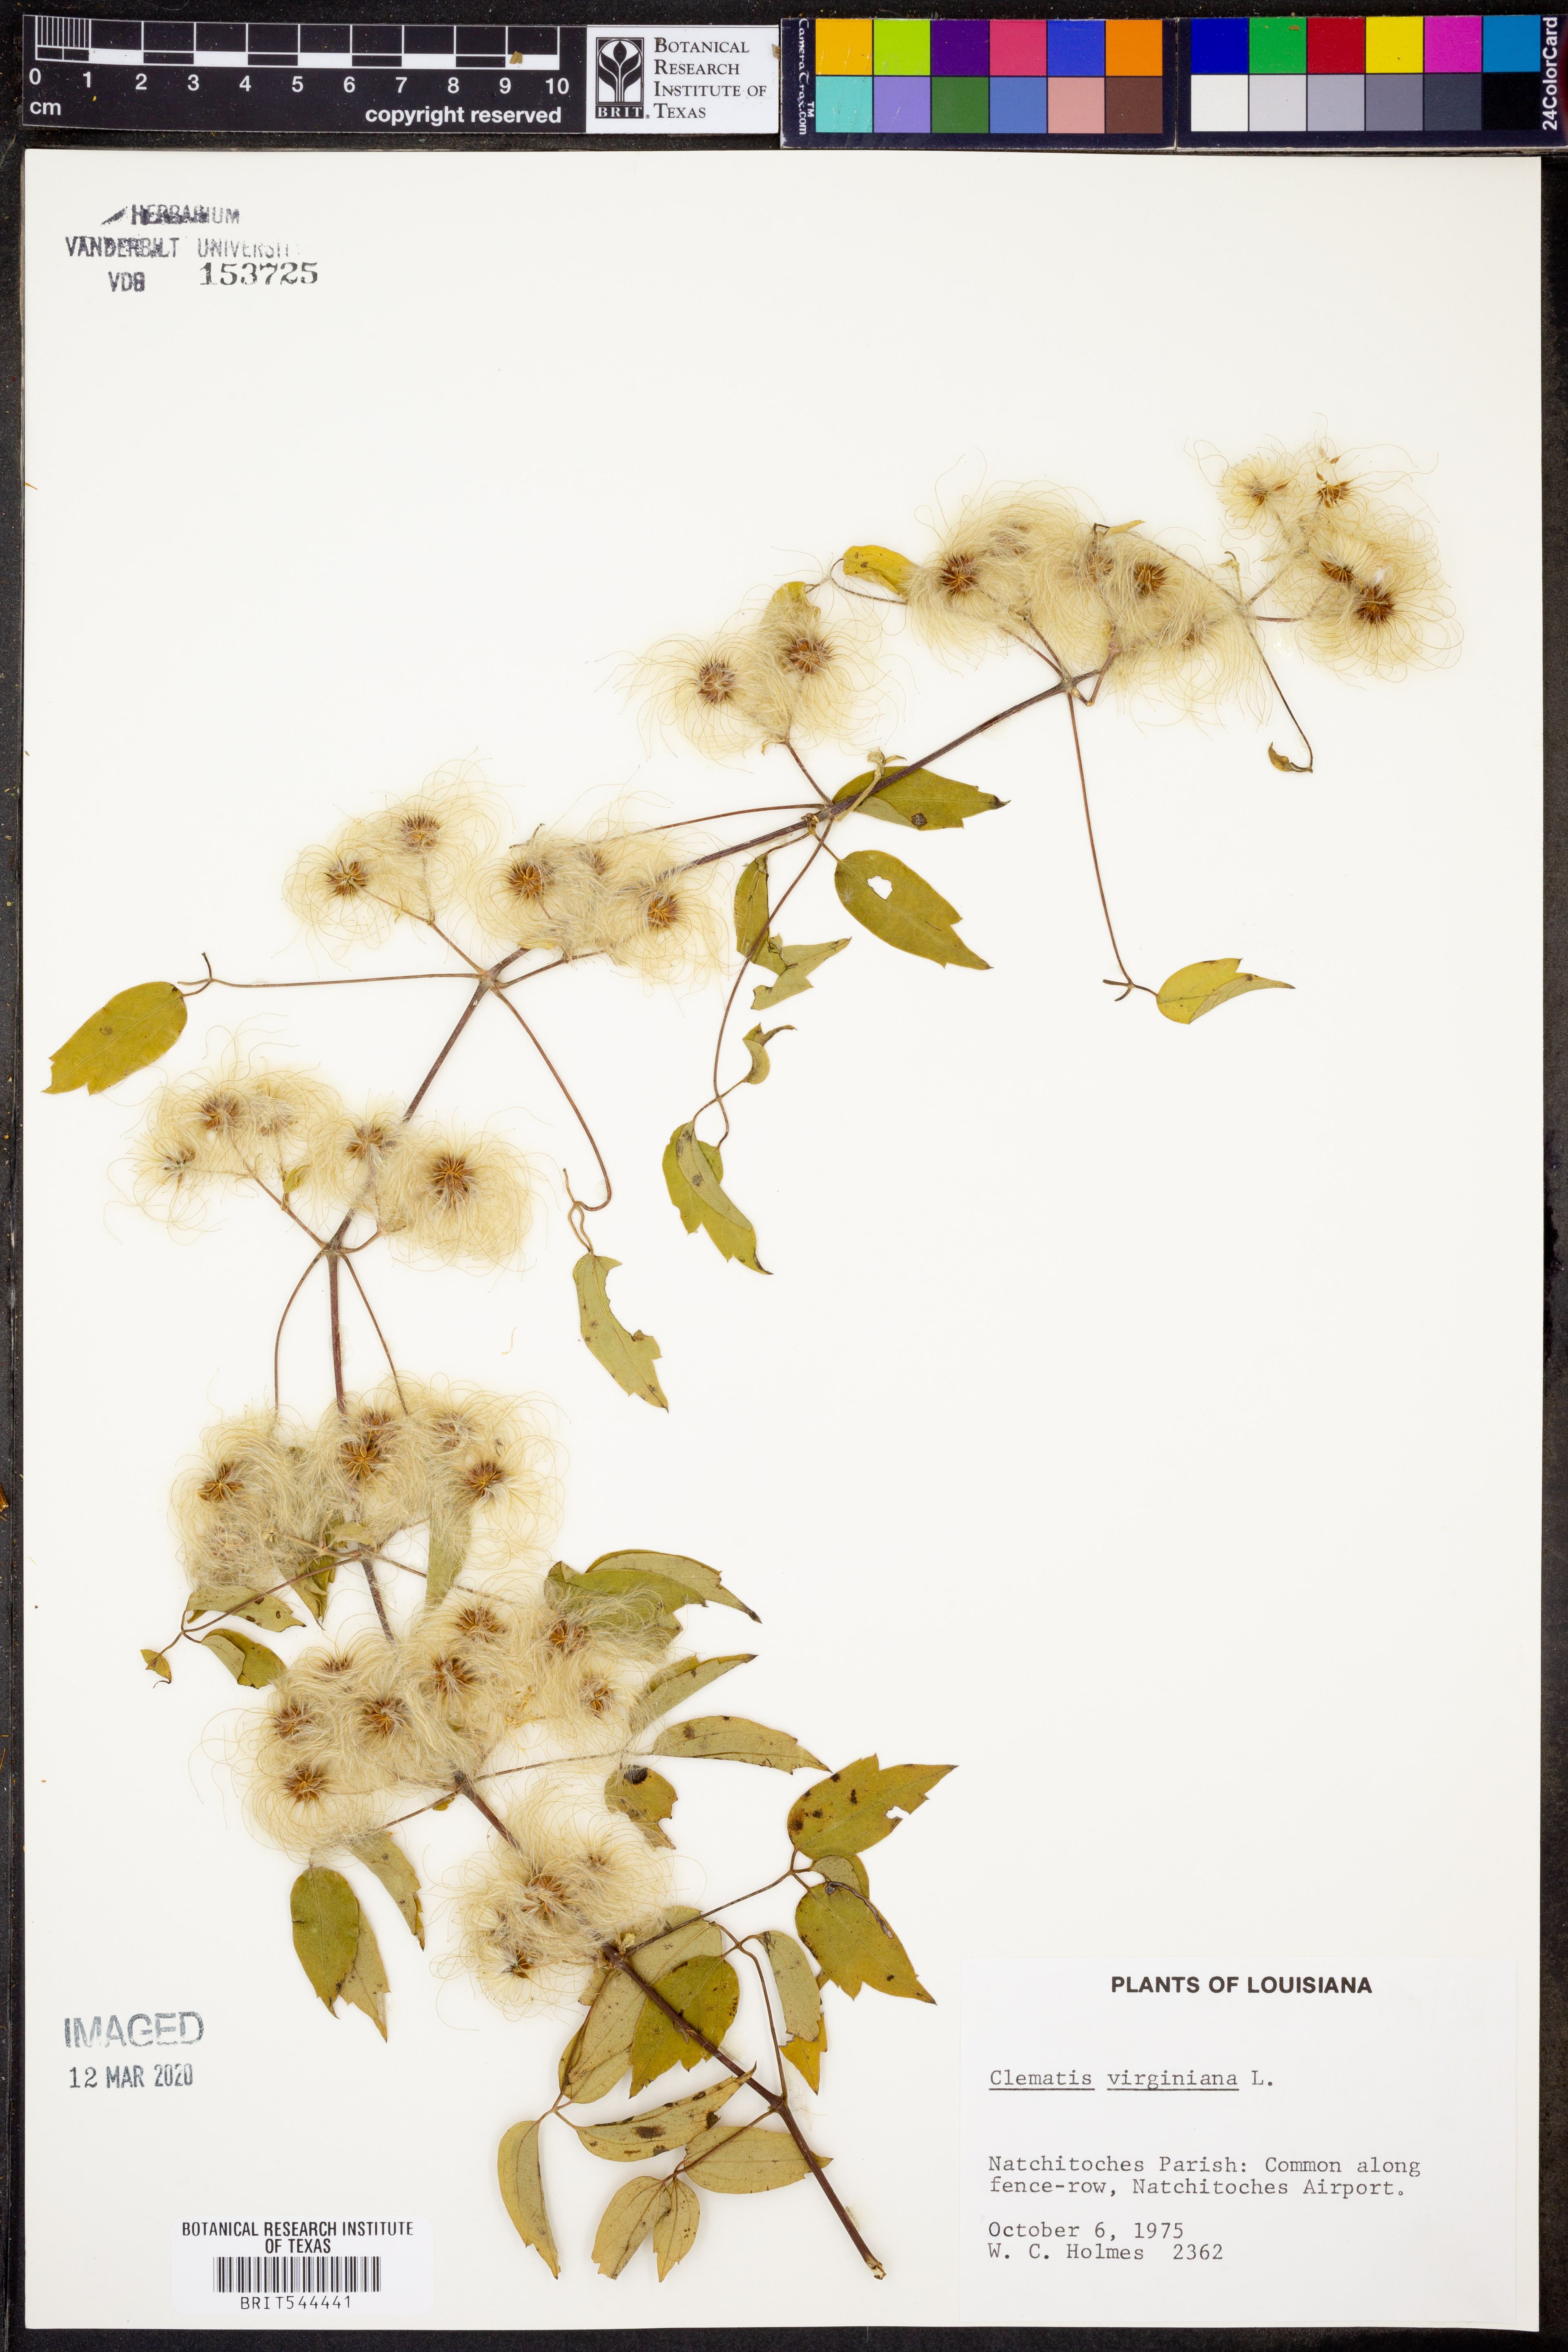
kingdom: Plantae
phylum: Tracheophyta
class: Magnoliopsida
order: Ranunculales
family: Ranunculaceae
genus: Clematis
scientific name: Clematis virginiana
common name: Virgin's-bower
